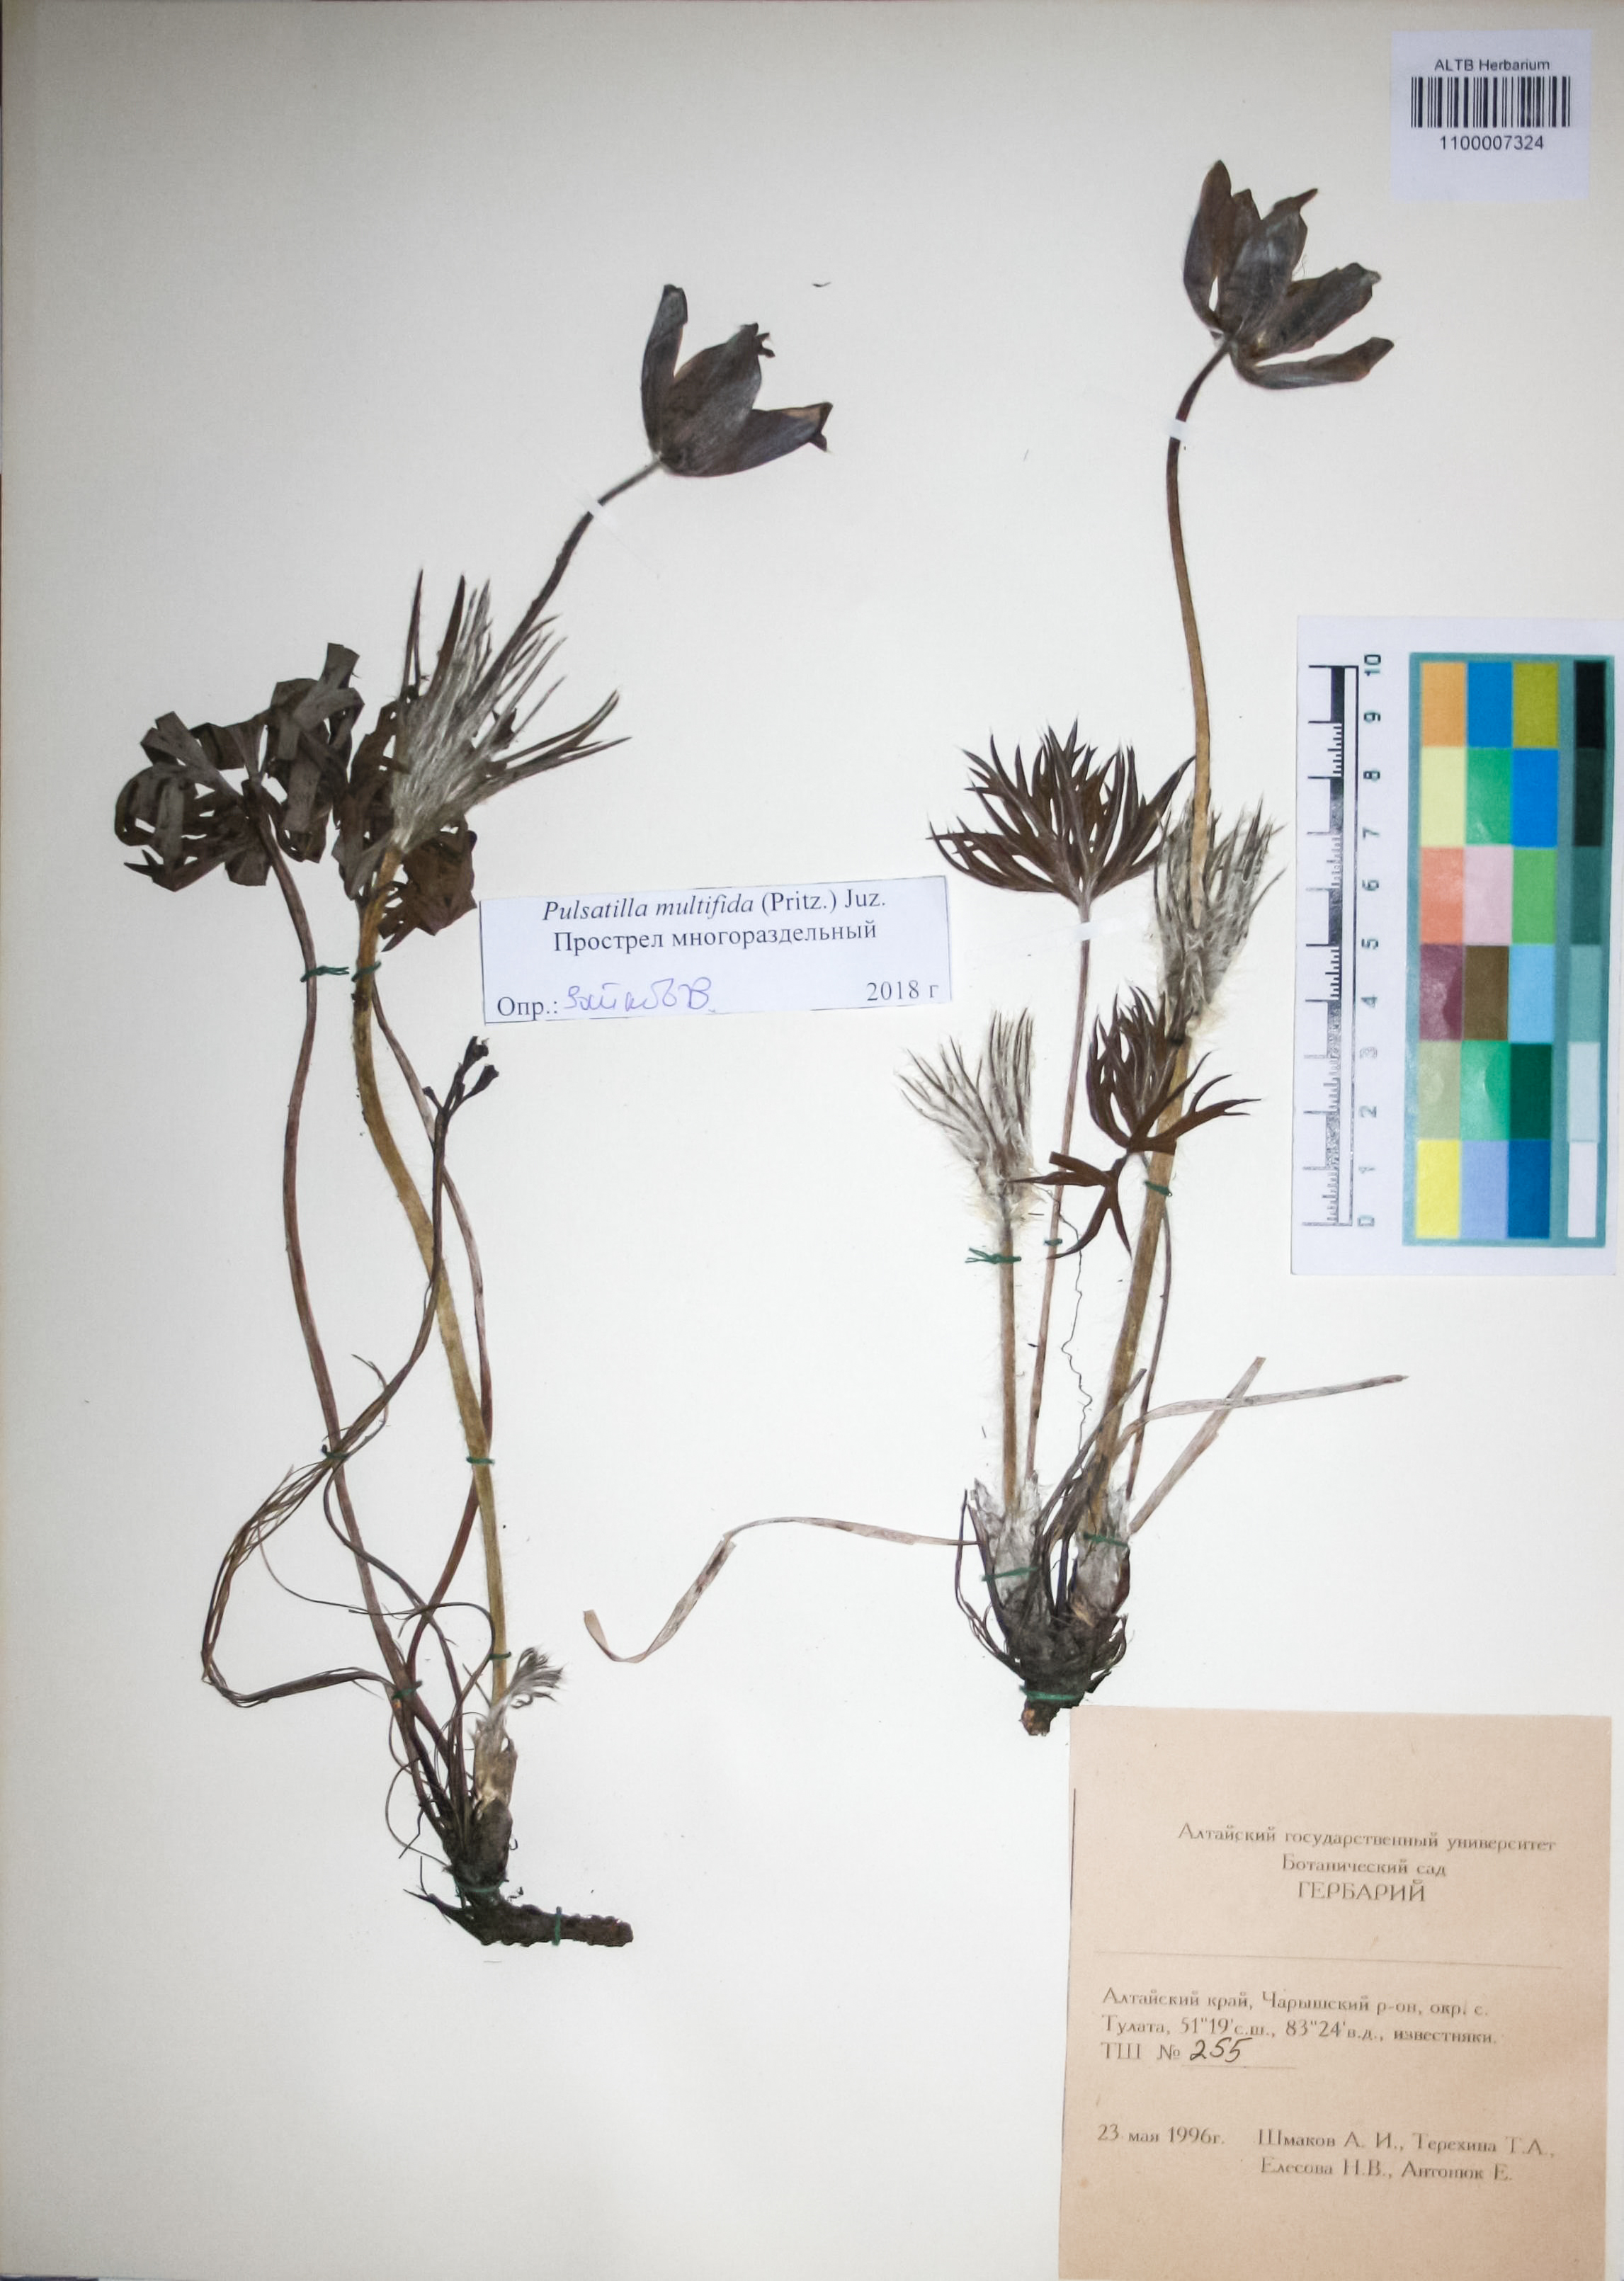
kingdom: Plantae
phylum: Tracheophyta
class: Magnoliopsida
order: Ranunculales
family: Ranunculaceae
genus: Pulsatilla
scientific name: Pulsatilla patens
